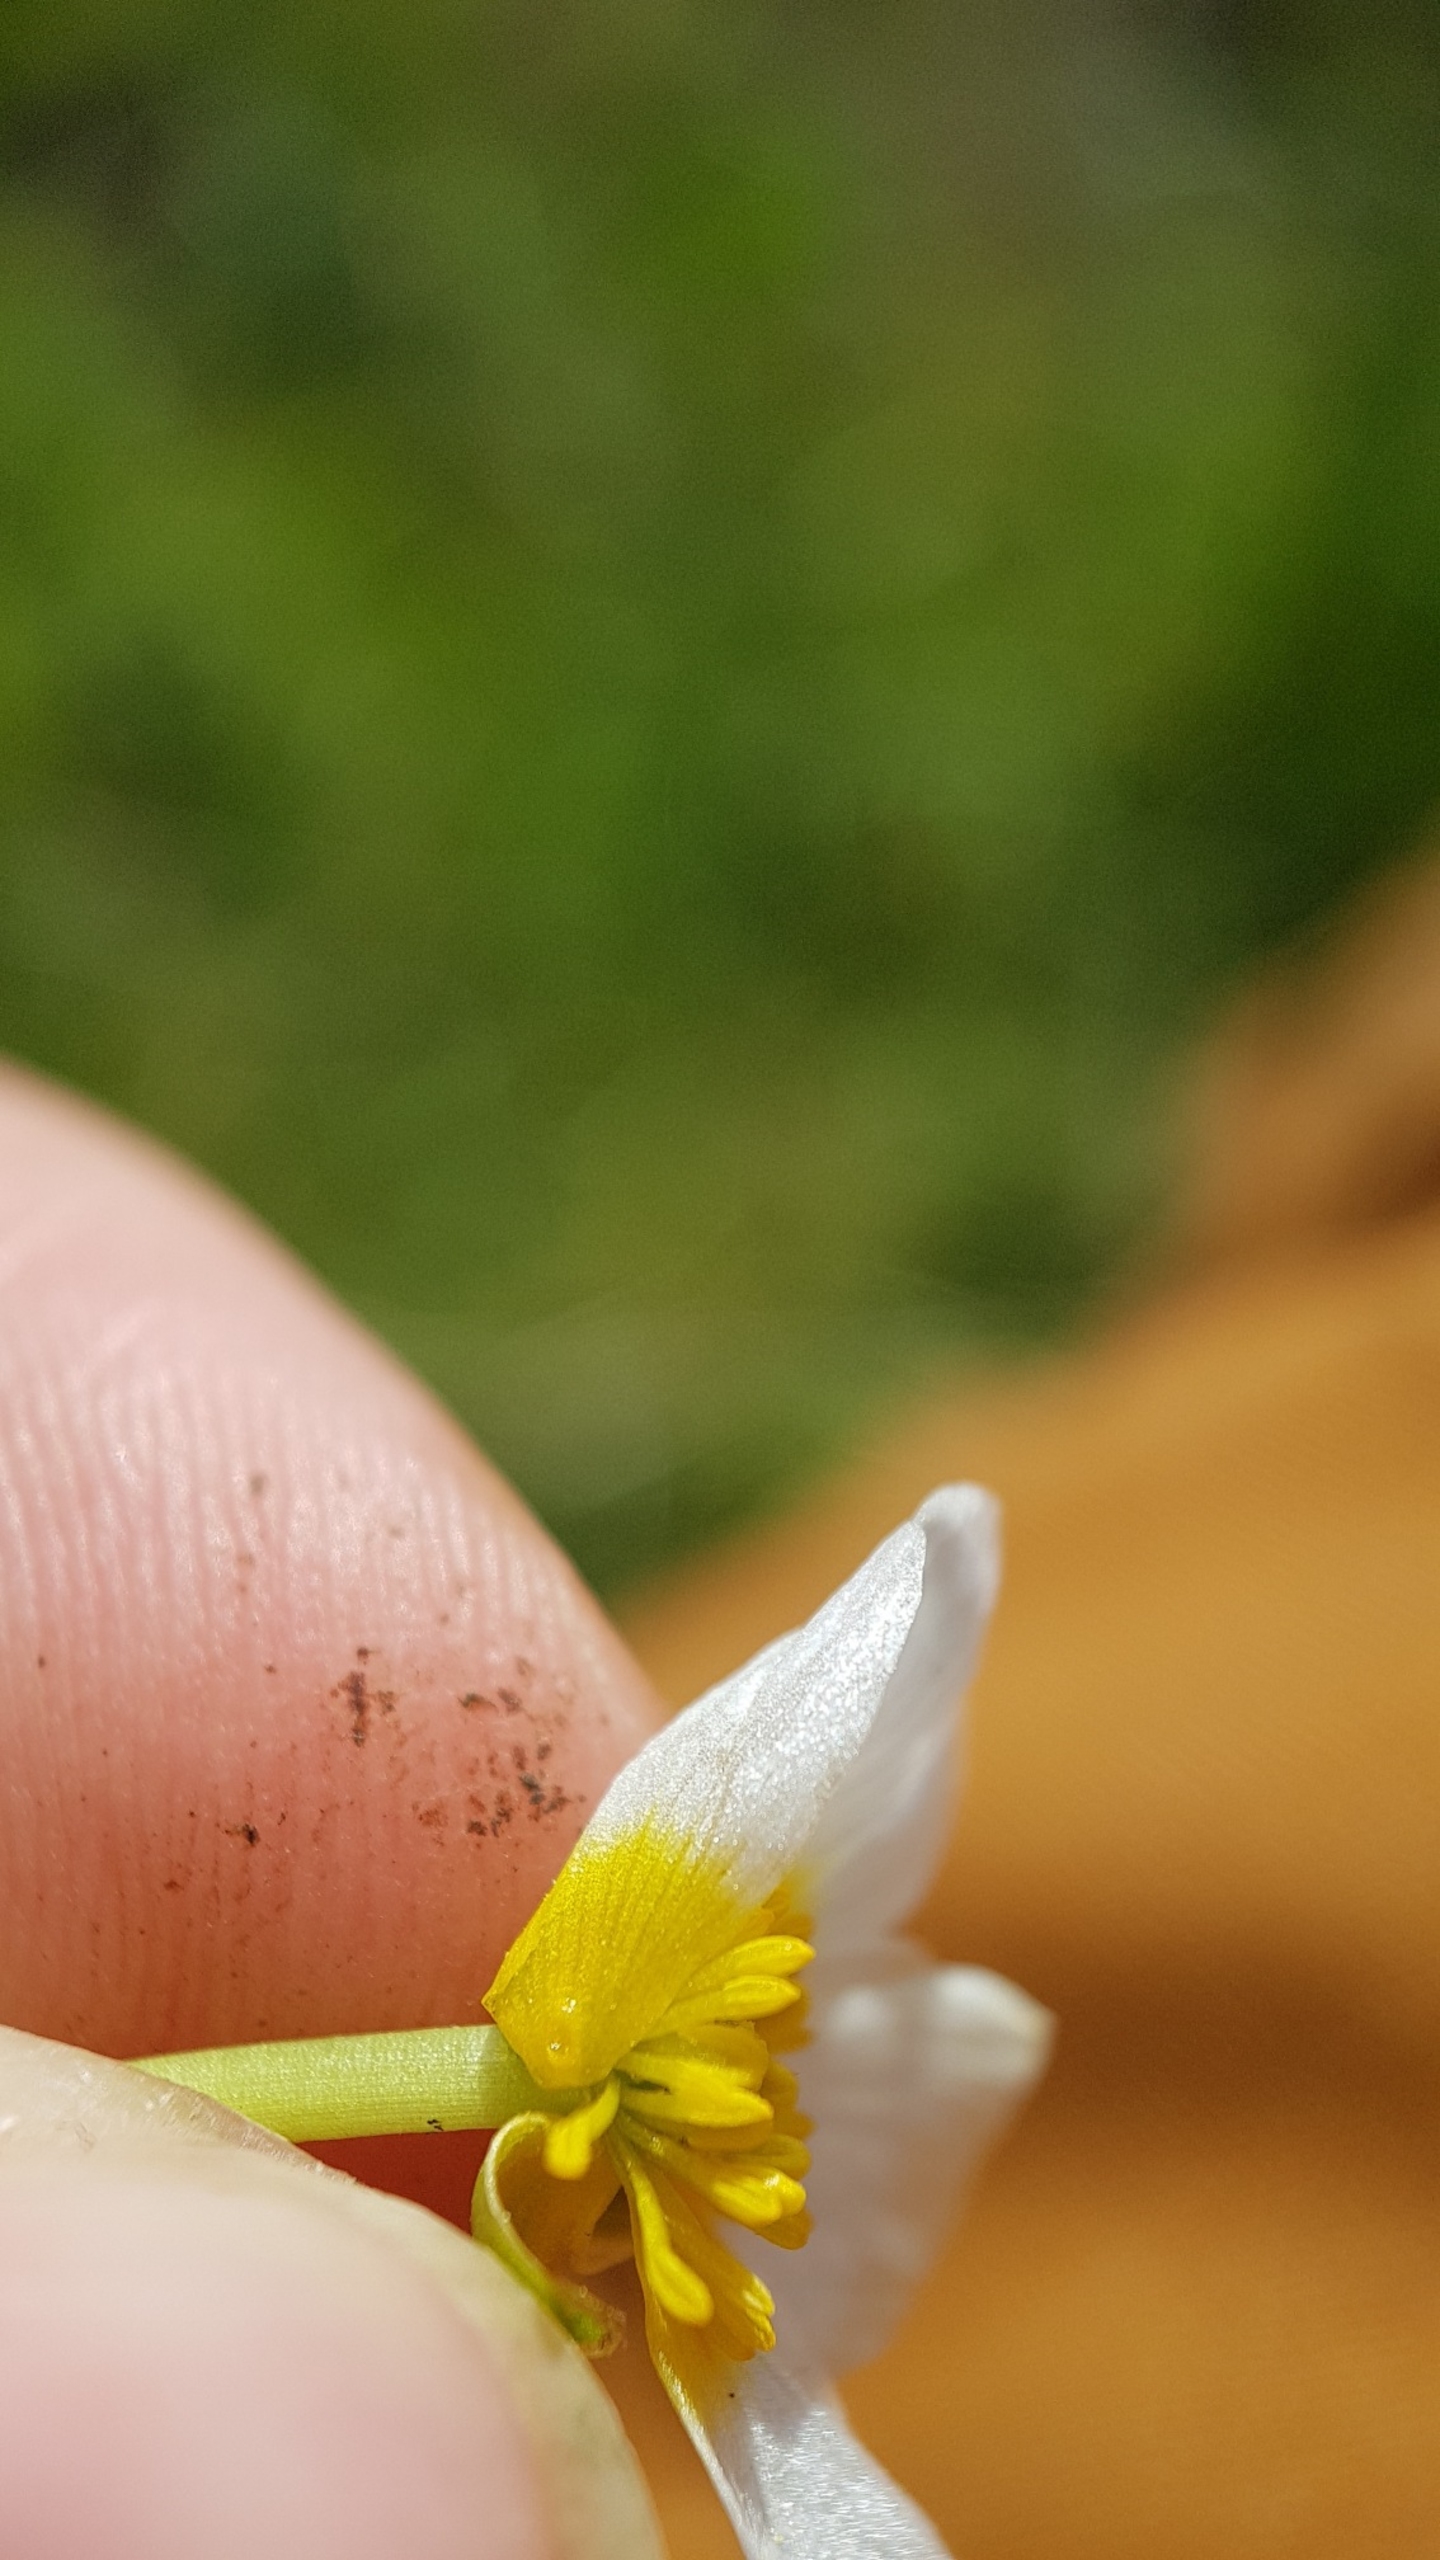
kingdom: Plantae
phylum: Tracheophyta
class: Magnoliopsida
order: Ranunculales
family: Ranunculaceae
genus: Ranunculus
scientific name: Ranunculus peltatus
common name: Storblomstret vandranunkel (underart)
